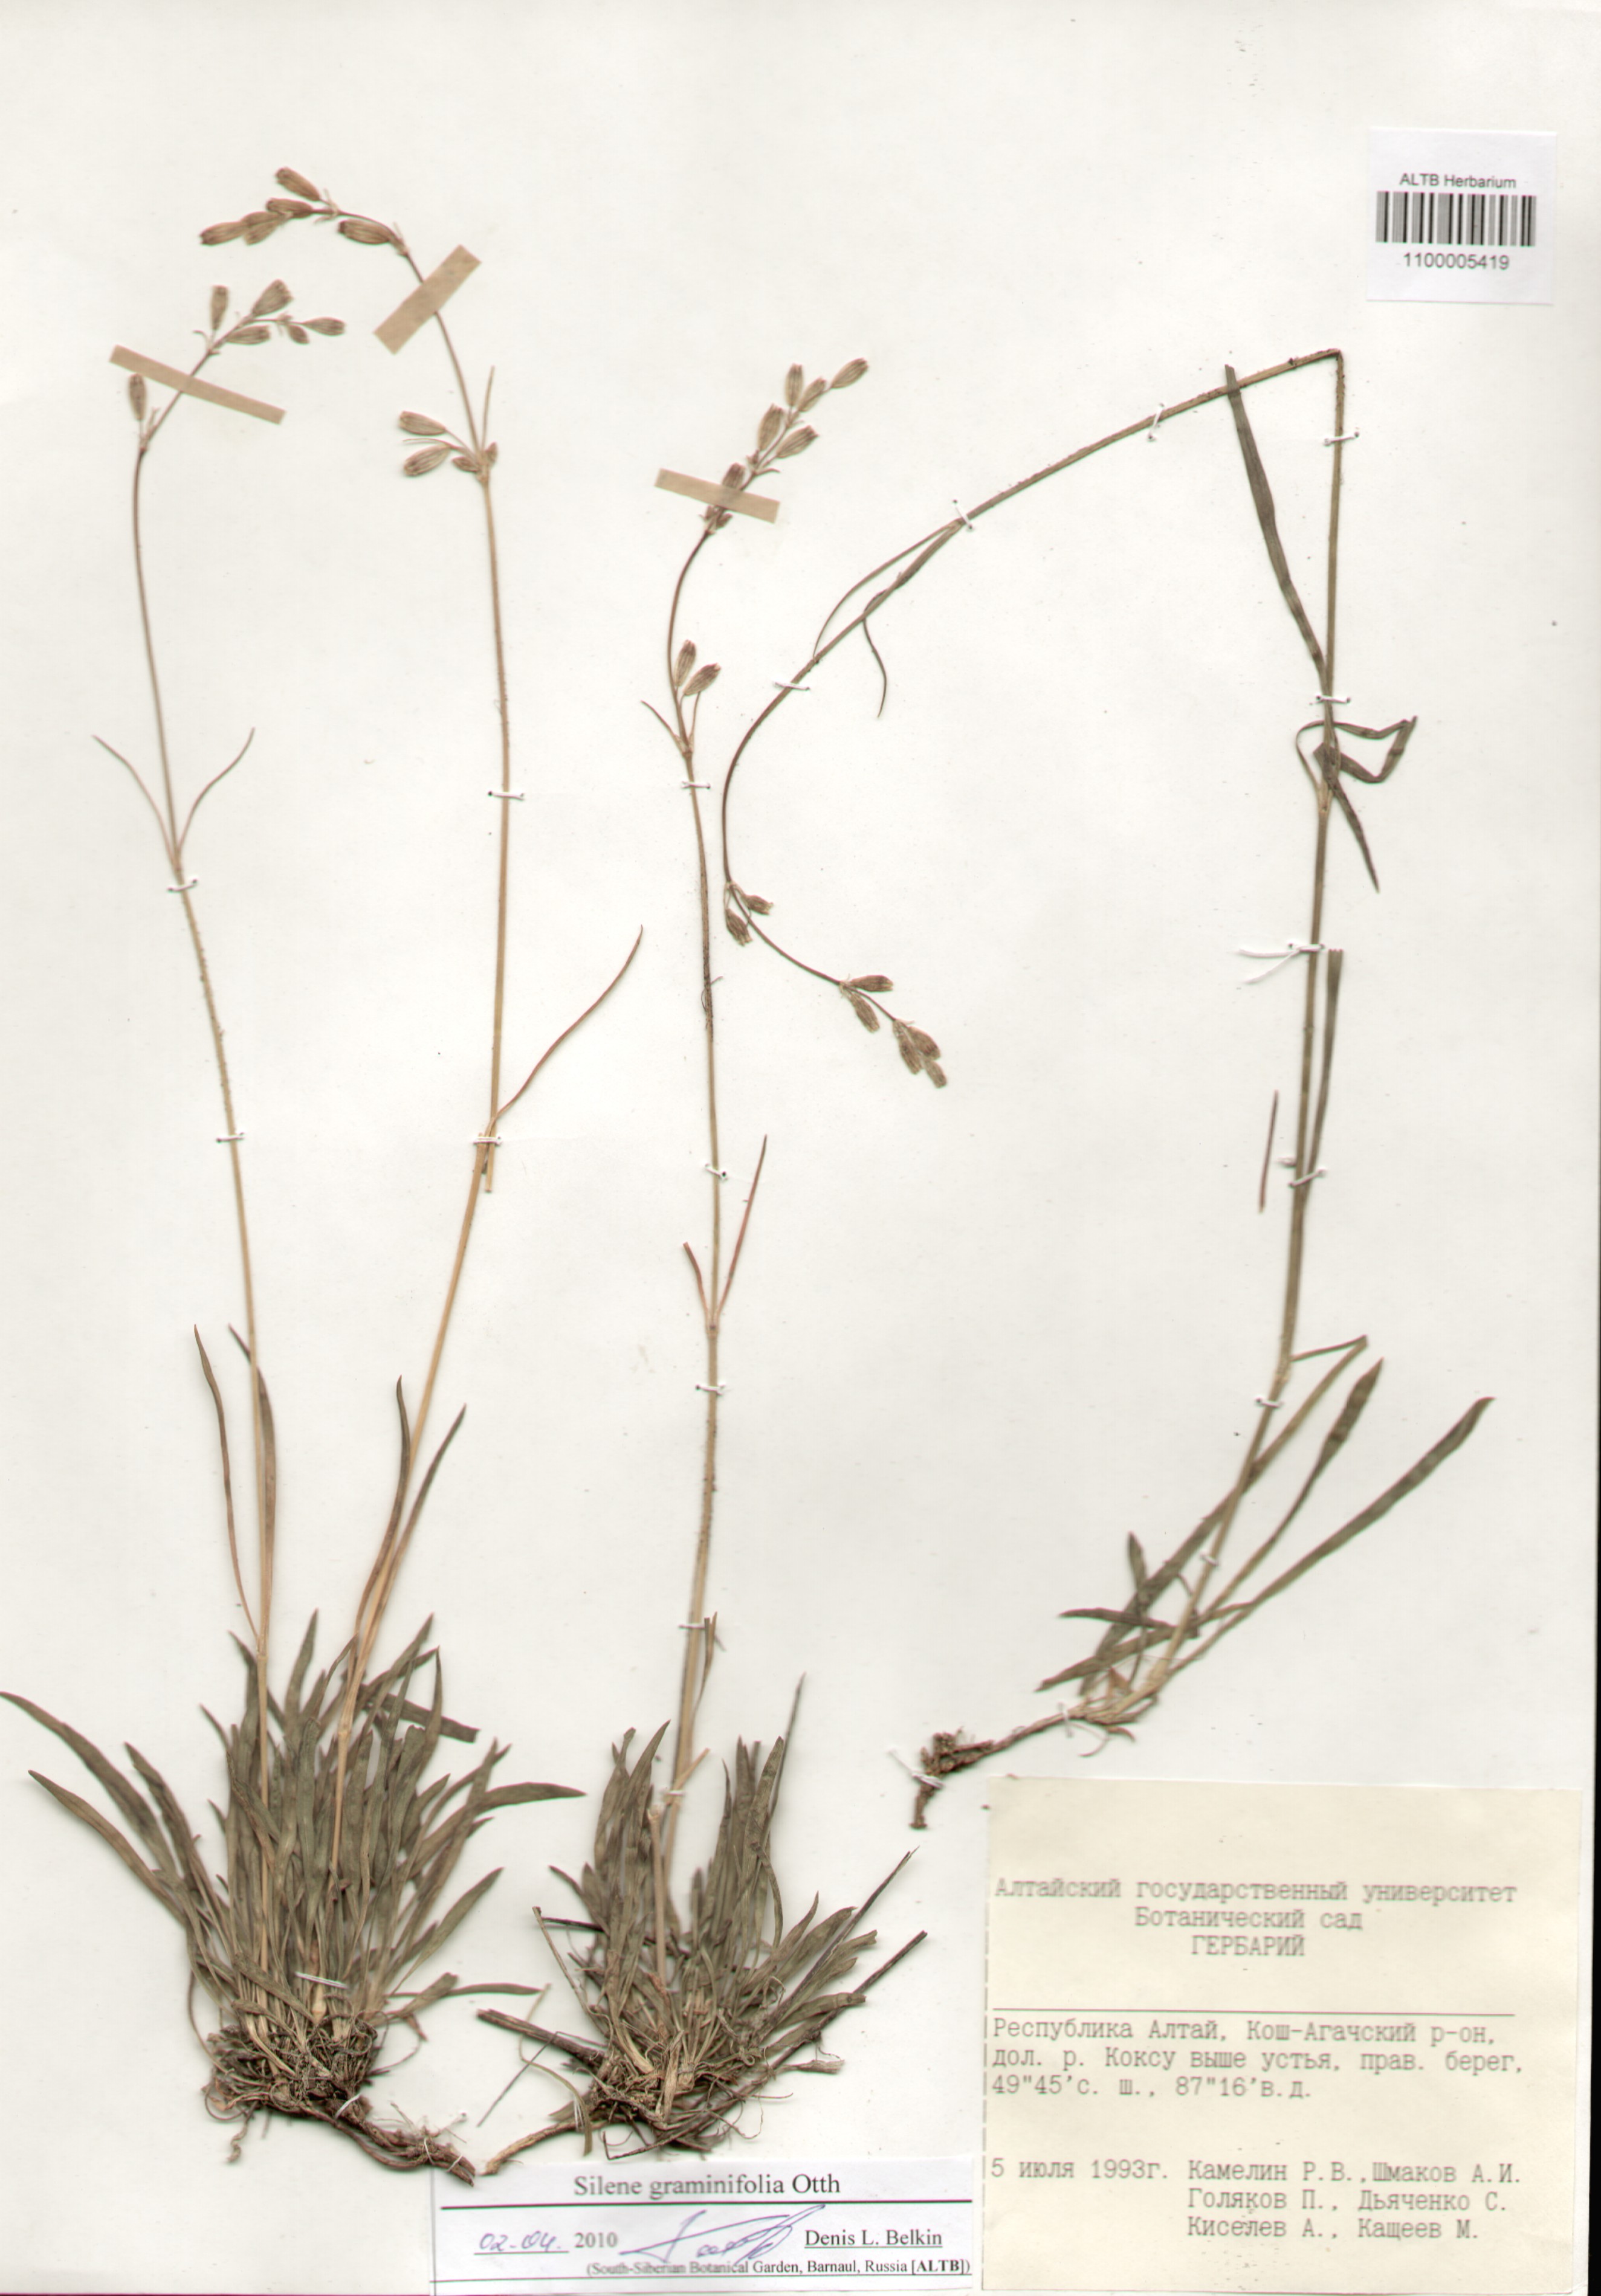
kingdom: Plantae
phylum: Tracheophyta
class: Magnoliopsida
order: Caryophyllales
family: Caryophyllaceae
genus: Silene
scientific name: Silene graminifolia
